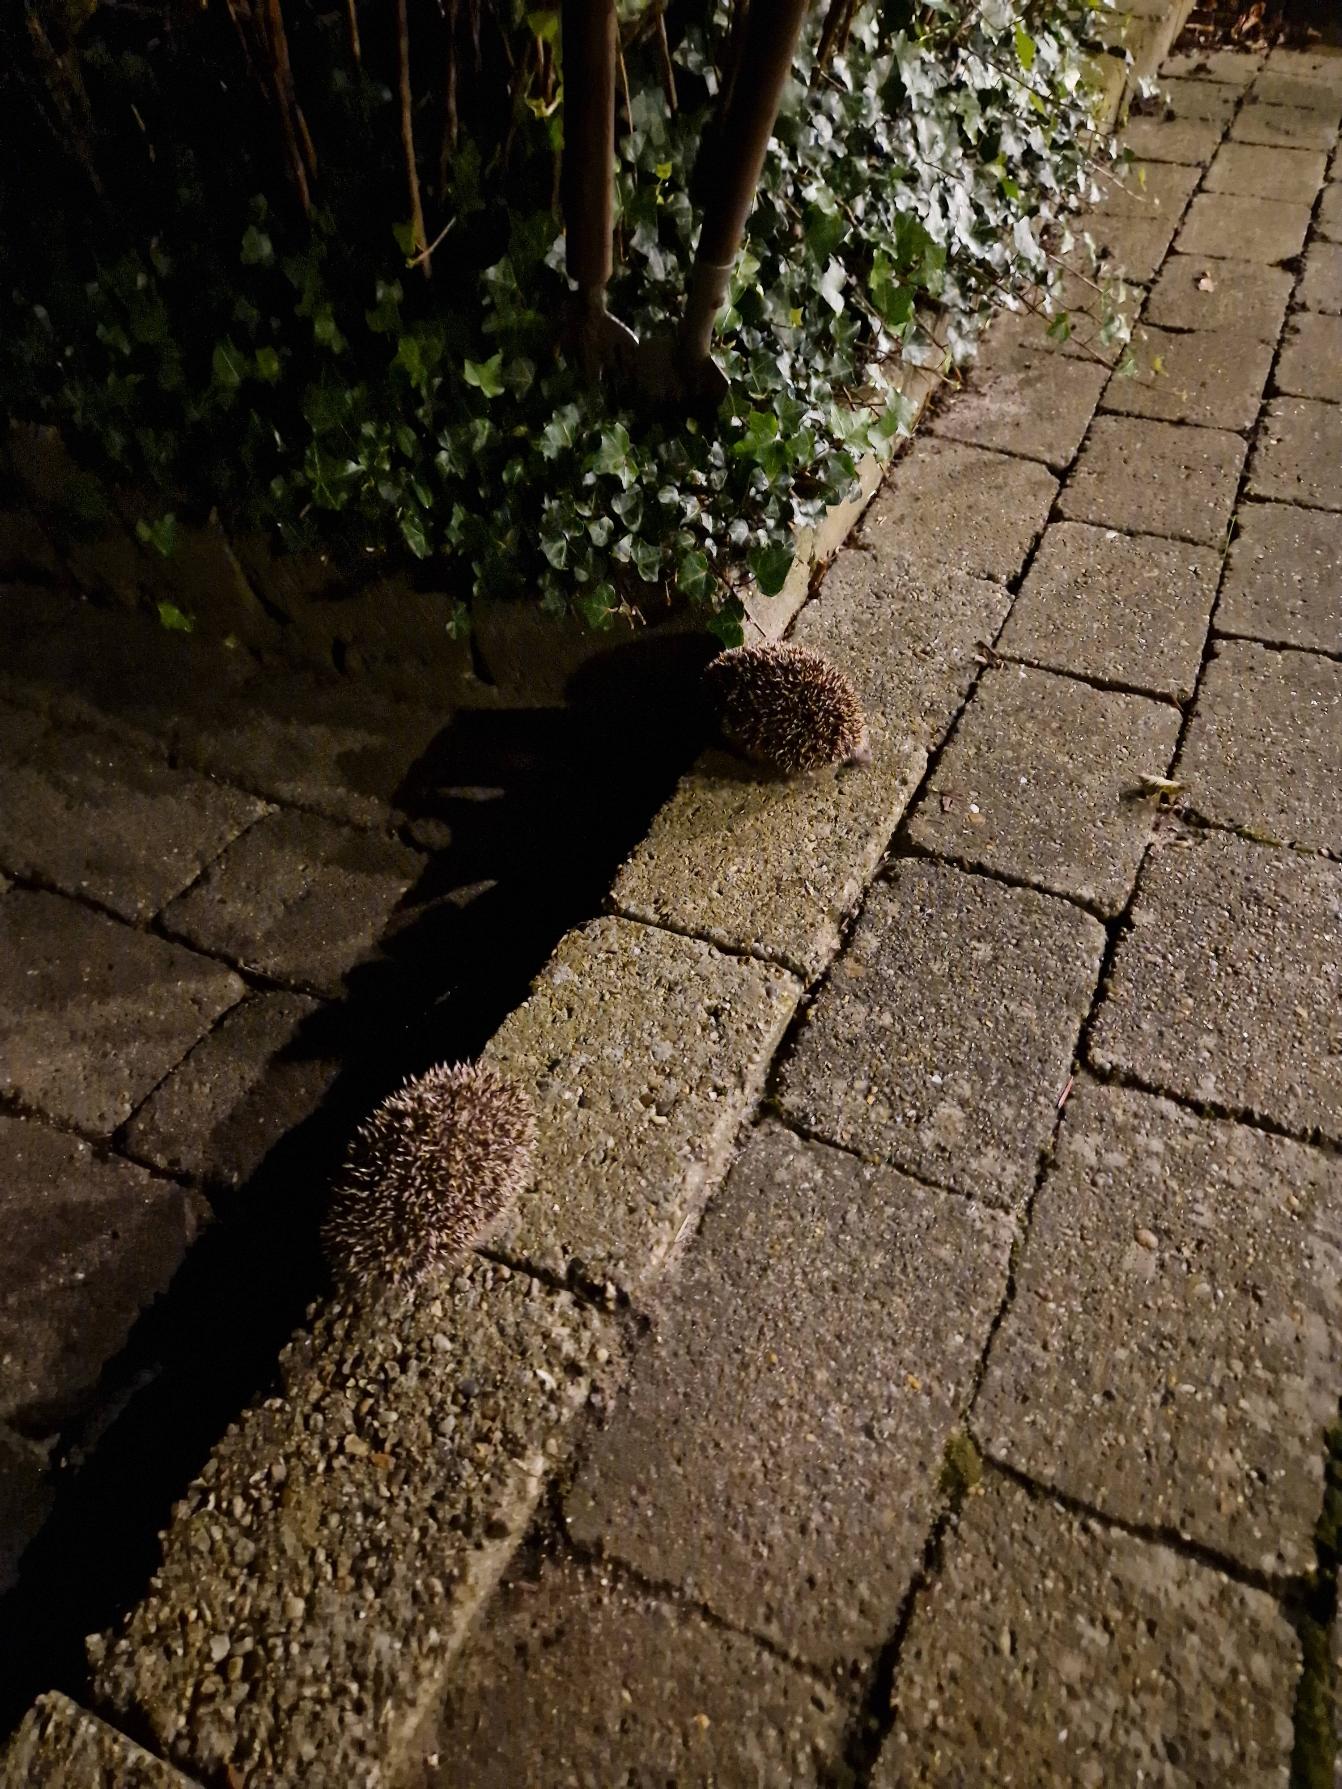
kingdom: Animalia
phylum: Chordata
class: Mammalia
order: Erinaceomorpha
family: Erinaceidae
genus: Erinaceus
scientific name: Erinaceus europaeus
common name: Pindsvin
